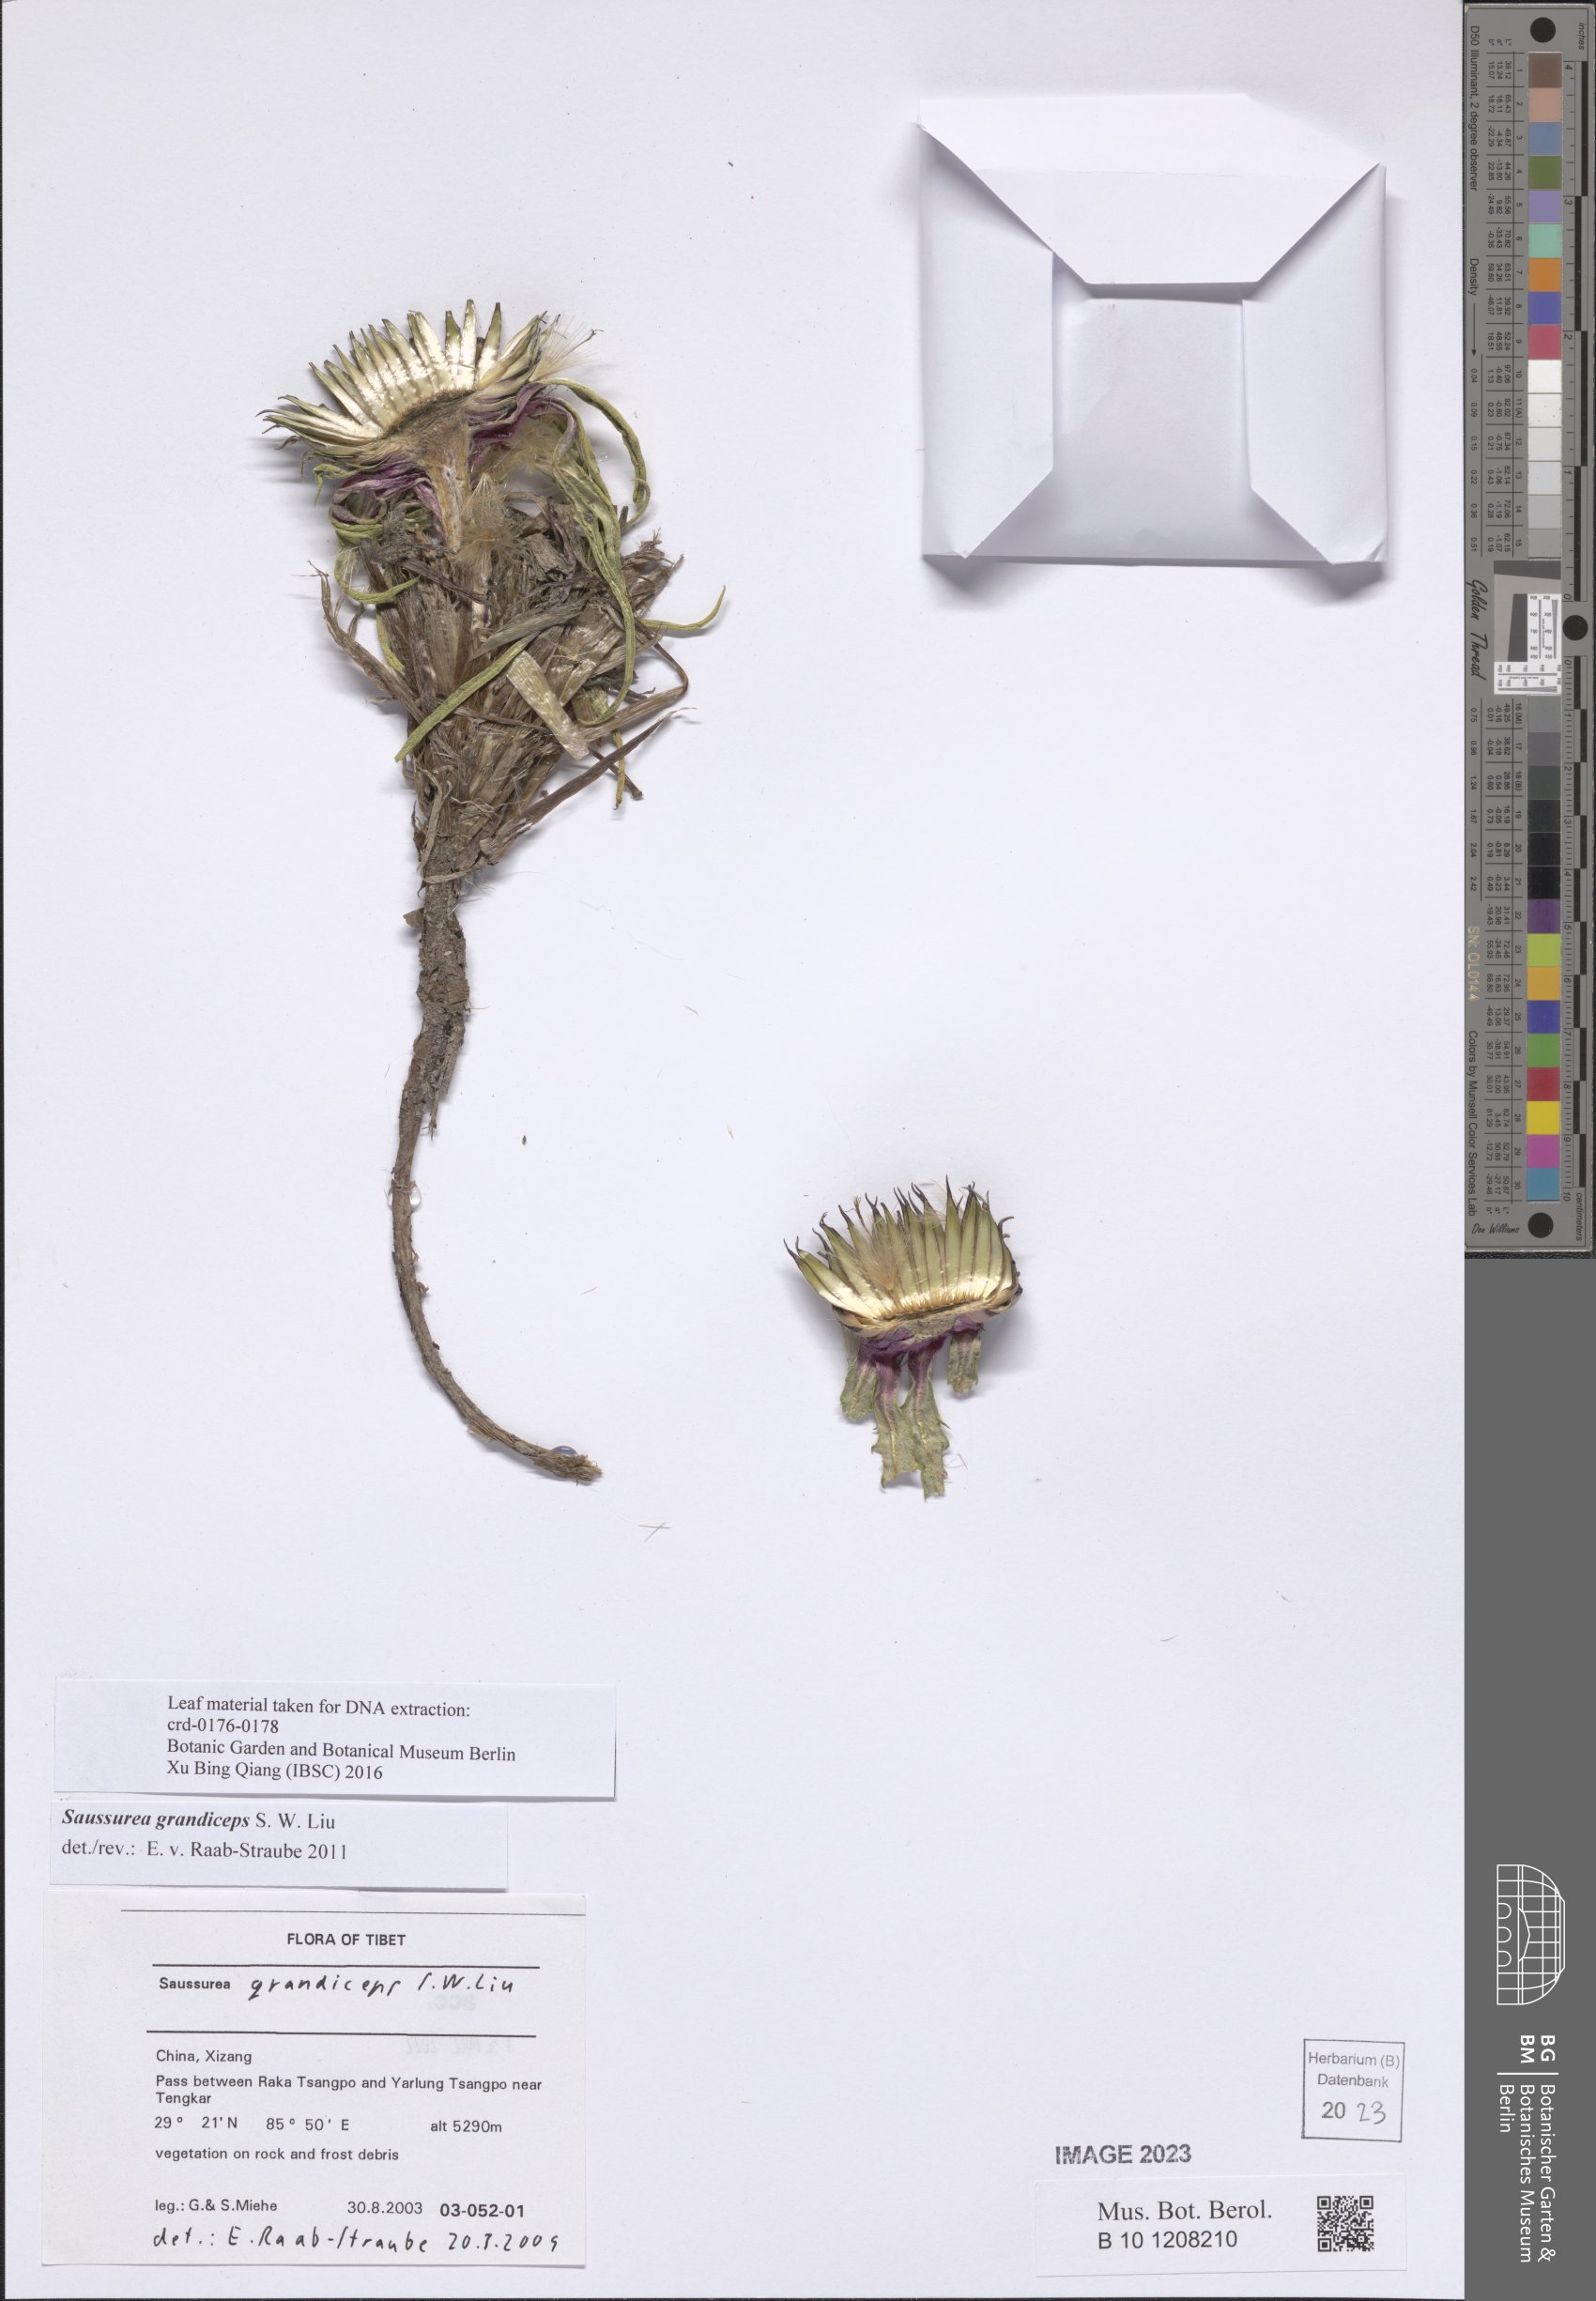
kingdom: Plantae
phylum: Tracheophyta
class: Magnoliopsida
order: Asterales
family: Asteraceae
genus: Saussurea
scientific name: Saussurea grandiceps
